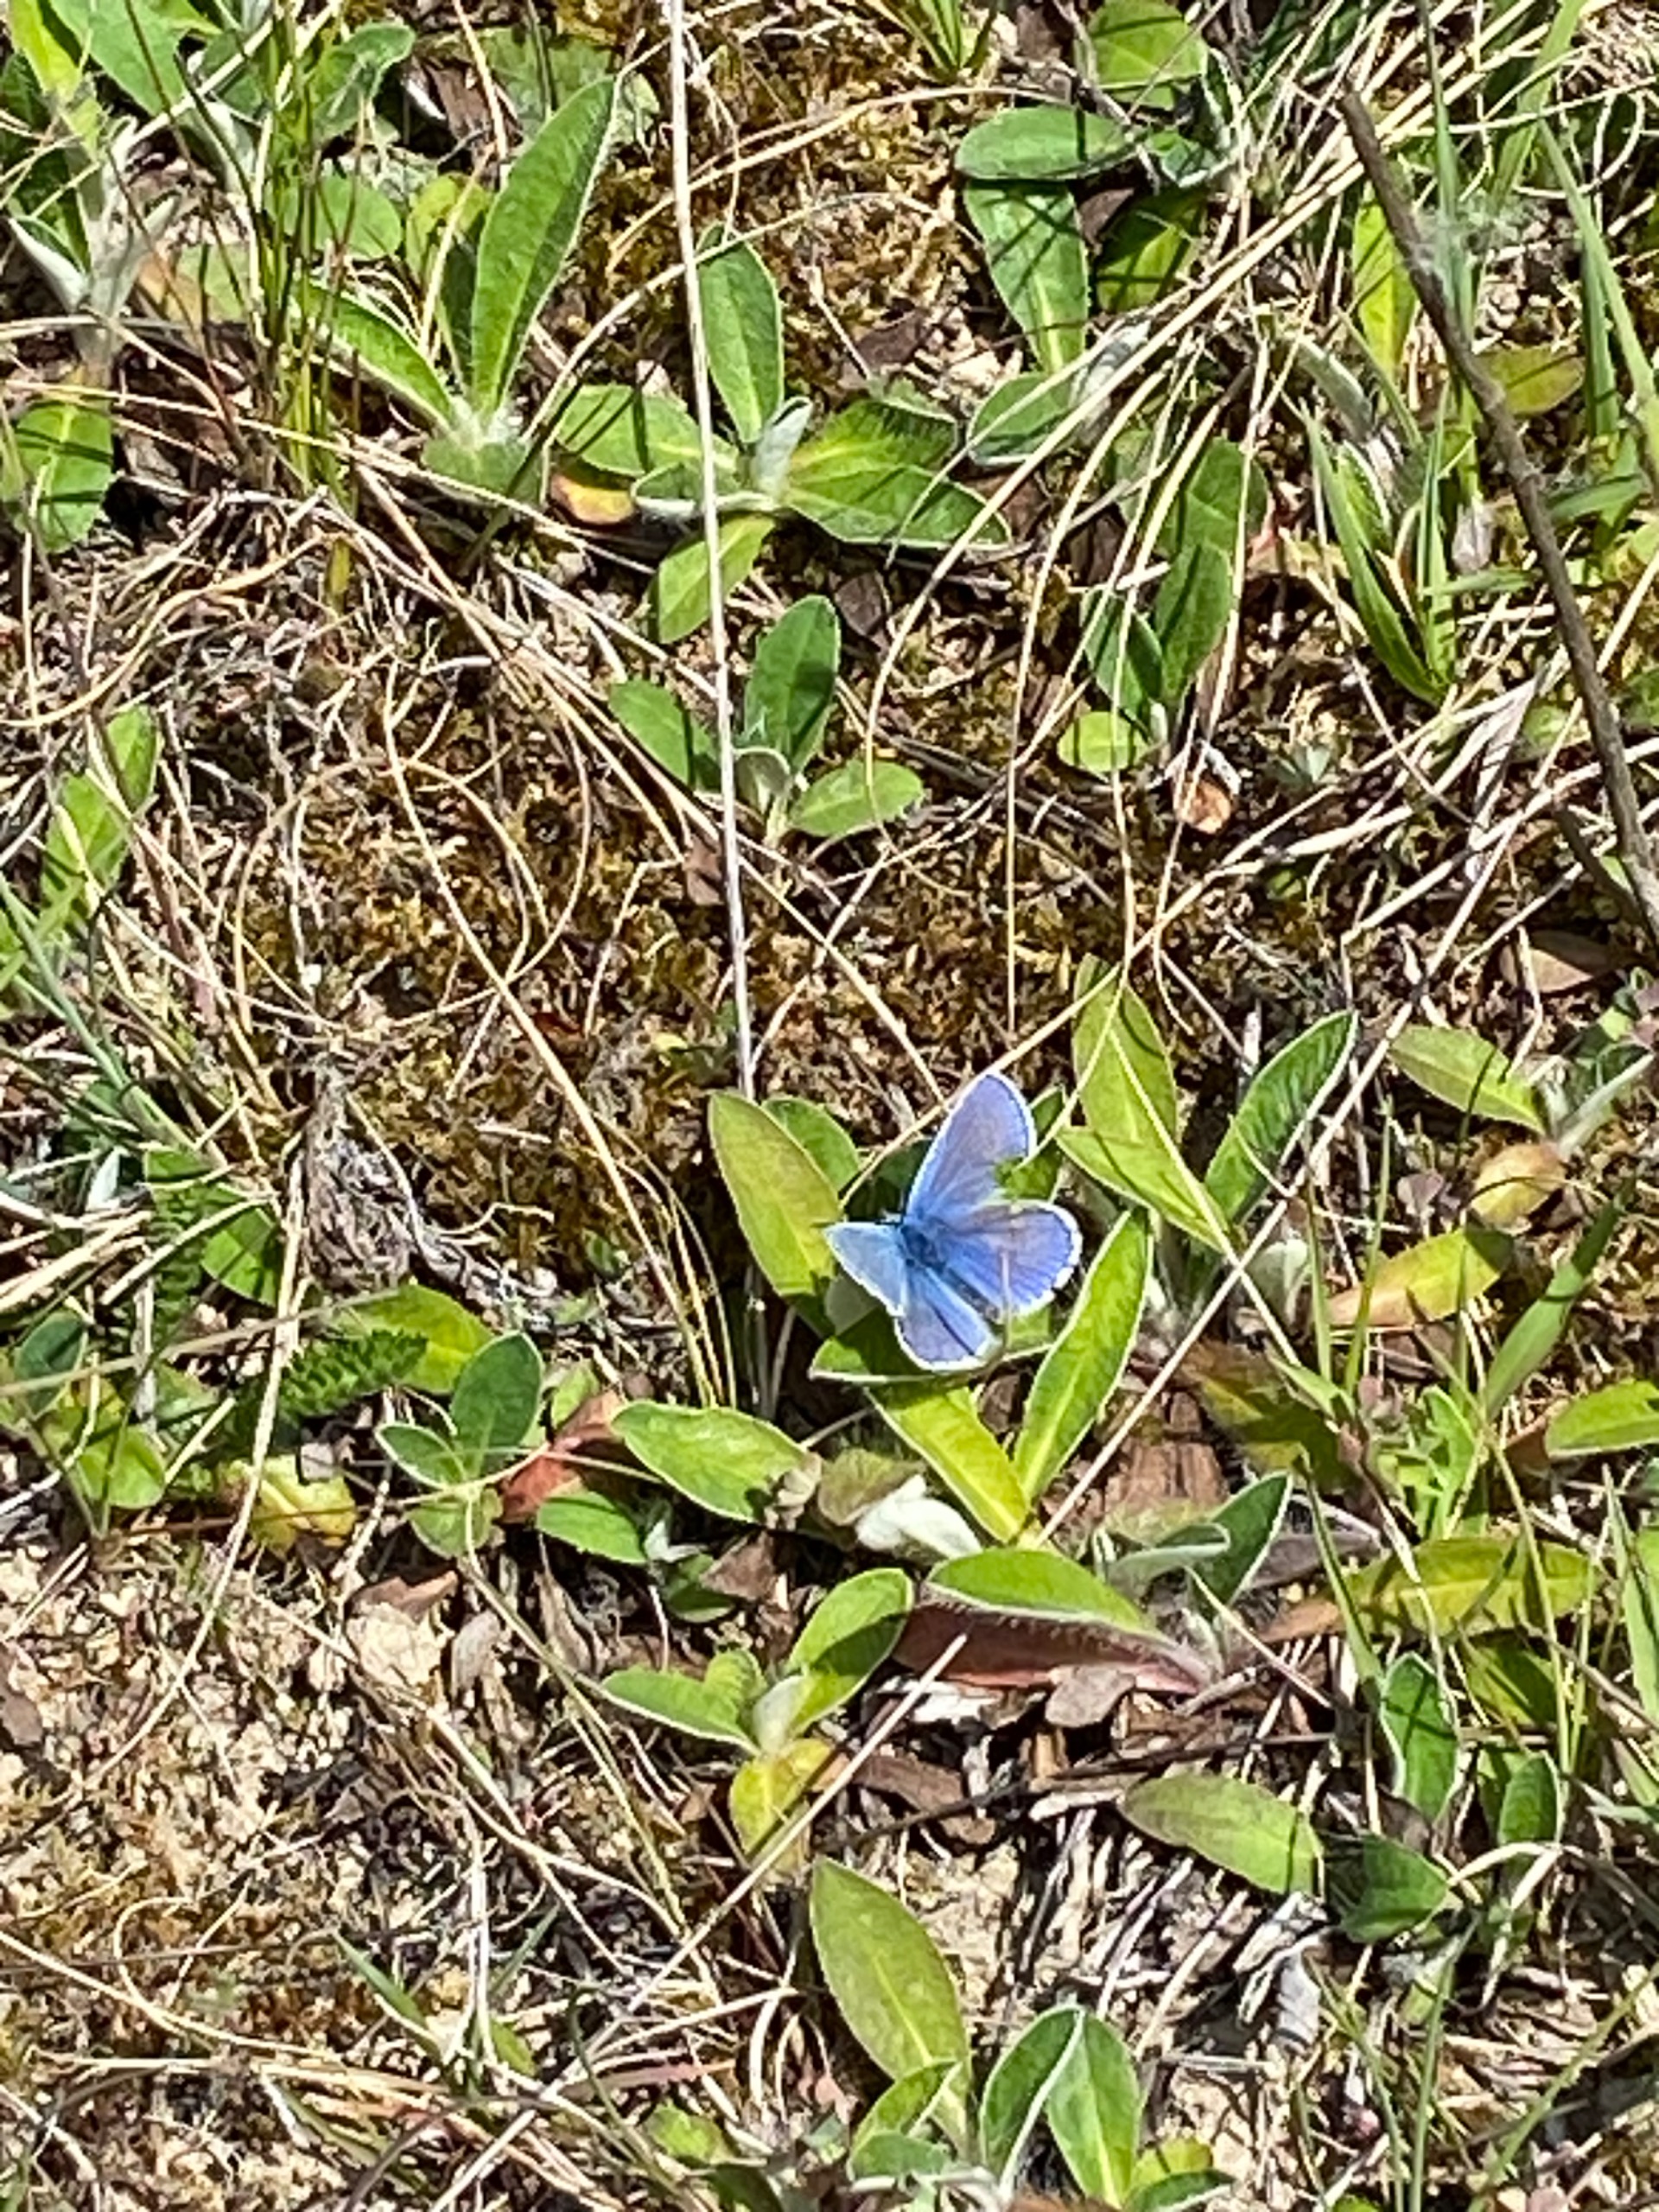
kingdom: Animalia
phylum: Arthropoda
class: Insecta
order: Lepidoptera
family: Lycaenidae
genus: Polyommatus
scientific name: Polyommatus icarus
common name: Almindelig blåfugl
